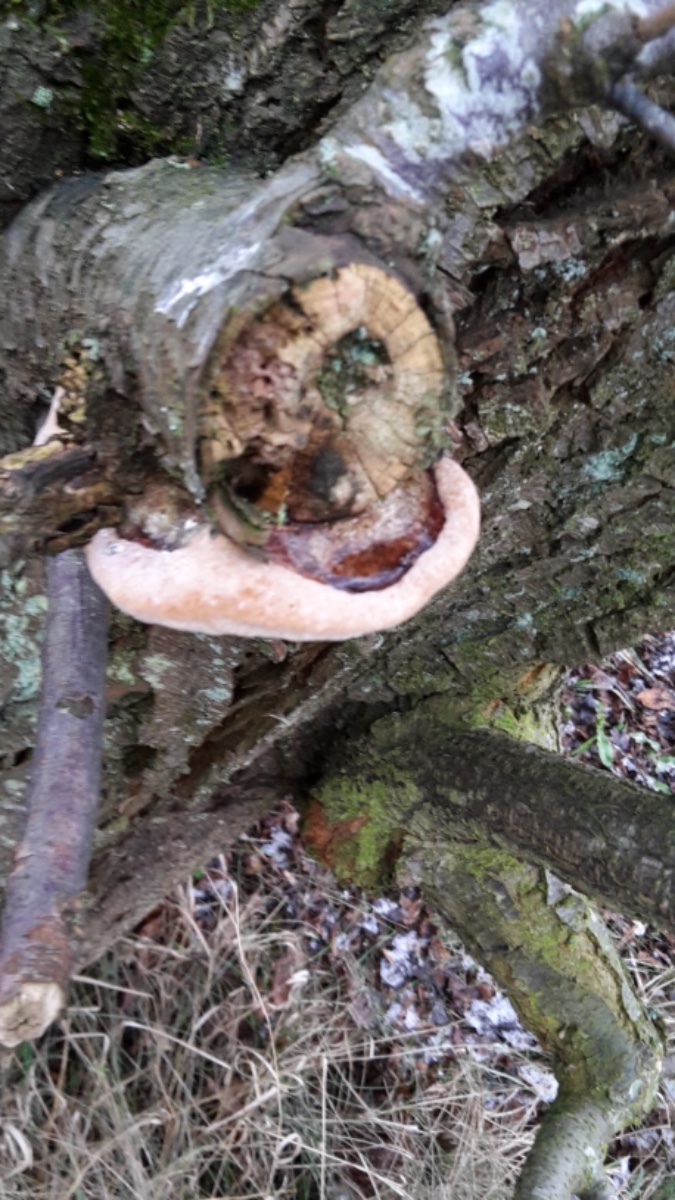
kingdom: Fungi
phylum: Basidiomycota
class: Agaricomycetes
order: Hymenochaetales
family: Hymenochaetaceae
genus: Phellinus
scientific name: Phellinus pomaceus
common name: blomme-ildporesvamp
